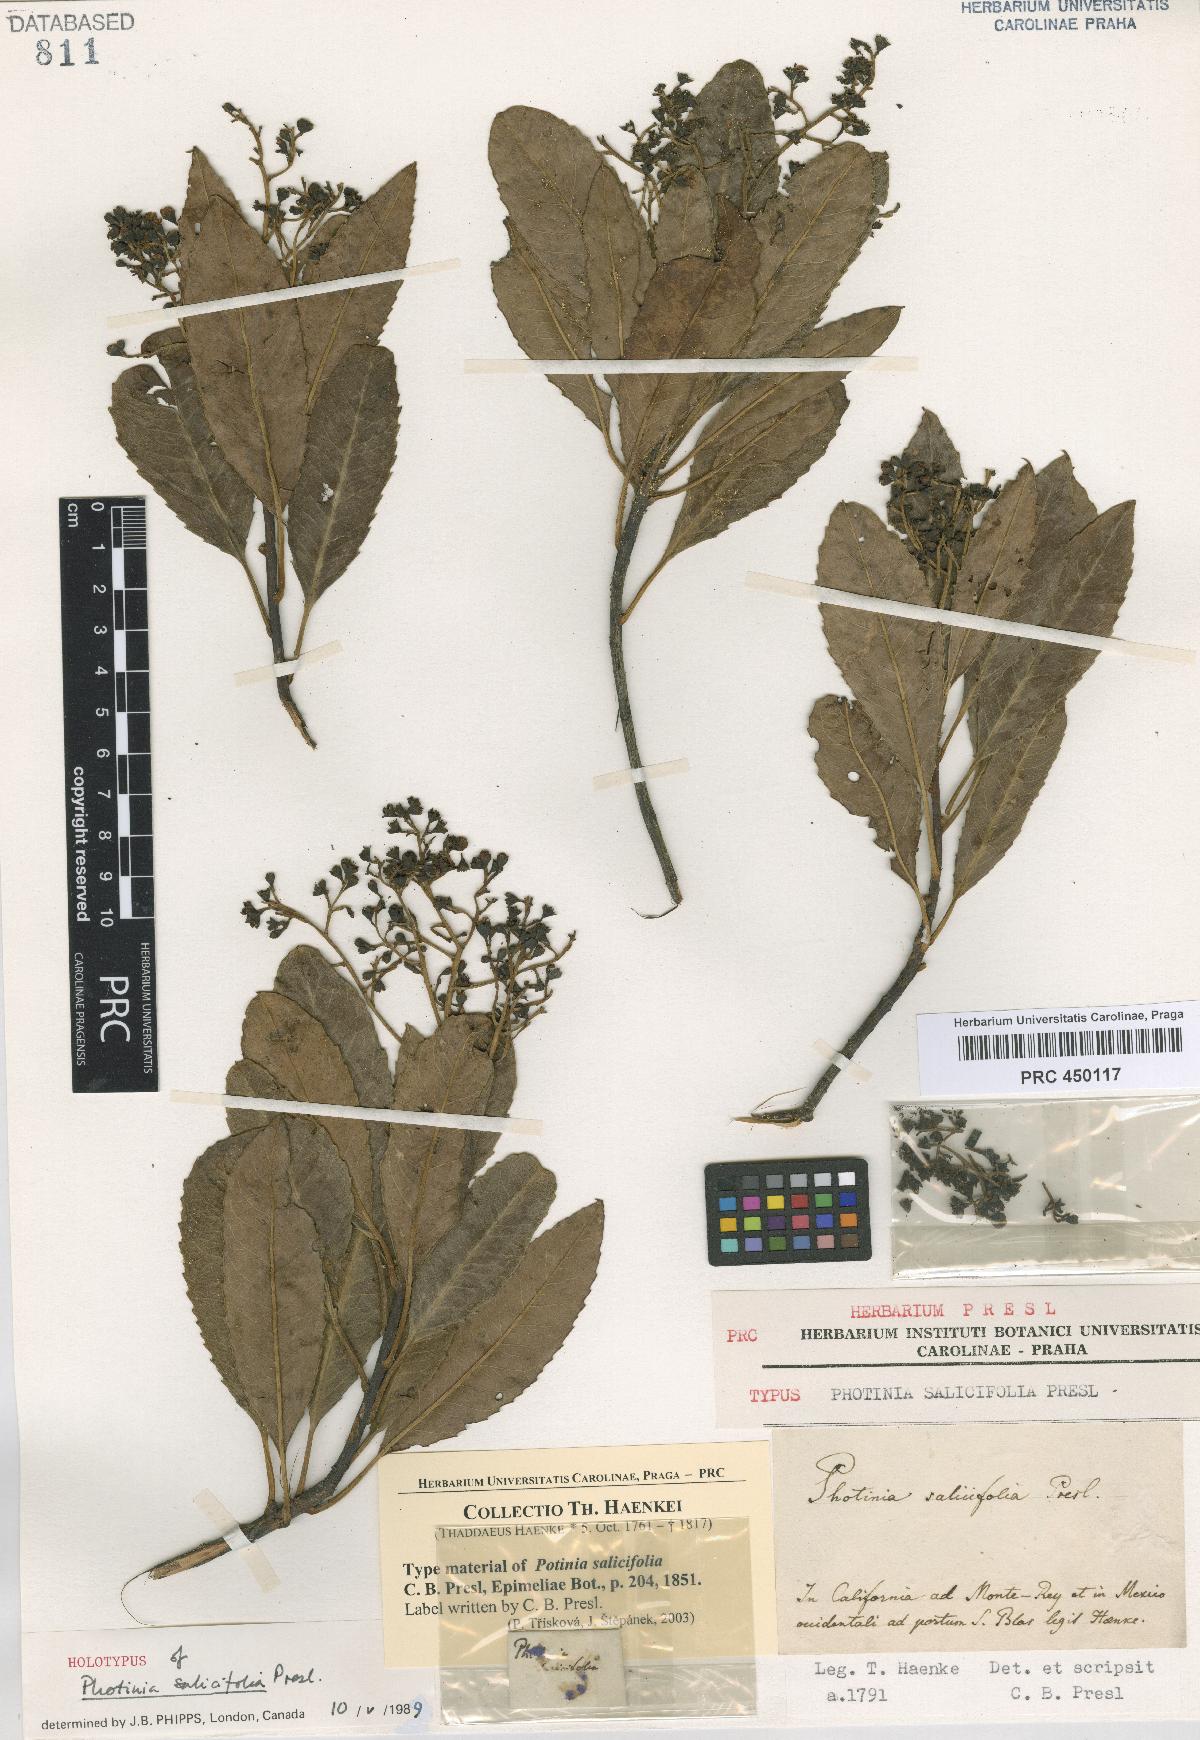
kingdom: Plantae
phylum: Tracheophyta
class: Magnoliopsida
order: Rosales
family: Rosaceae
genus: Heteromeles
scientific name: Heteromeles arbutifolia
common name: California-holly
